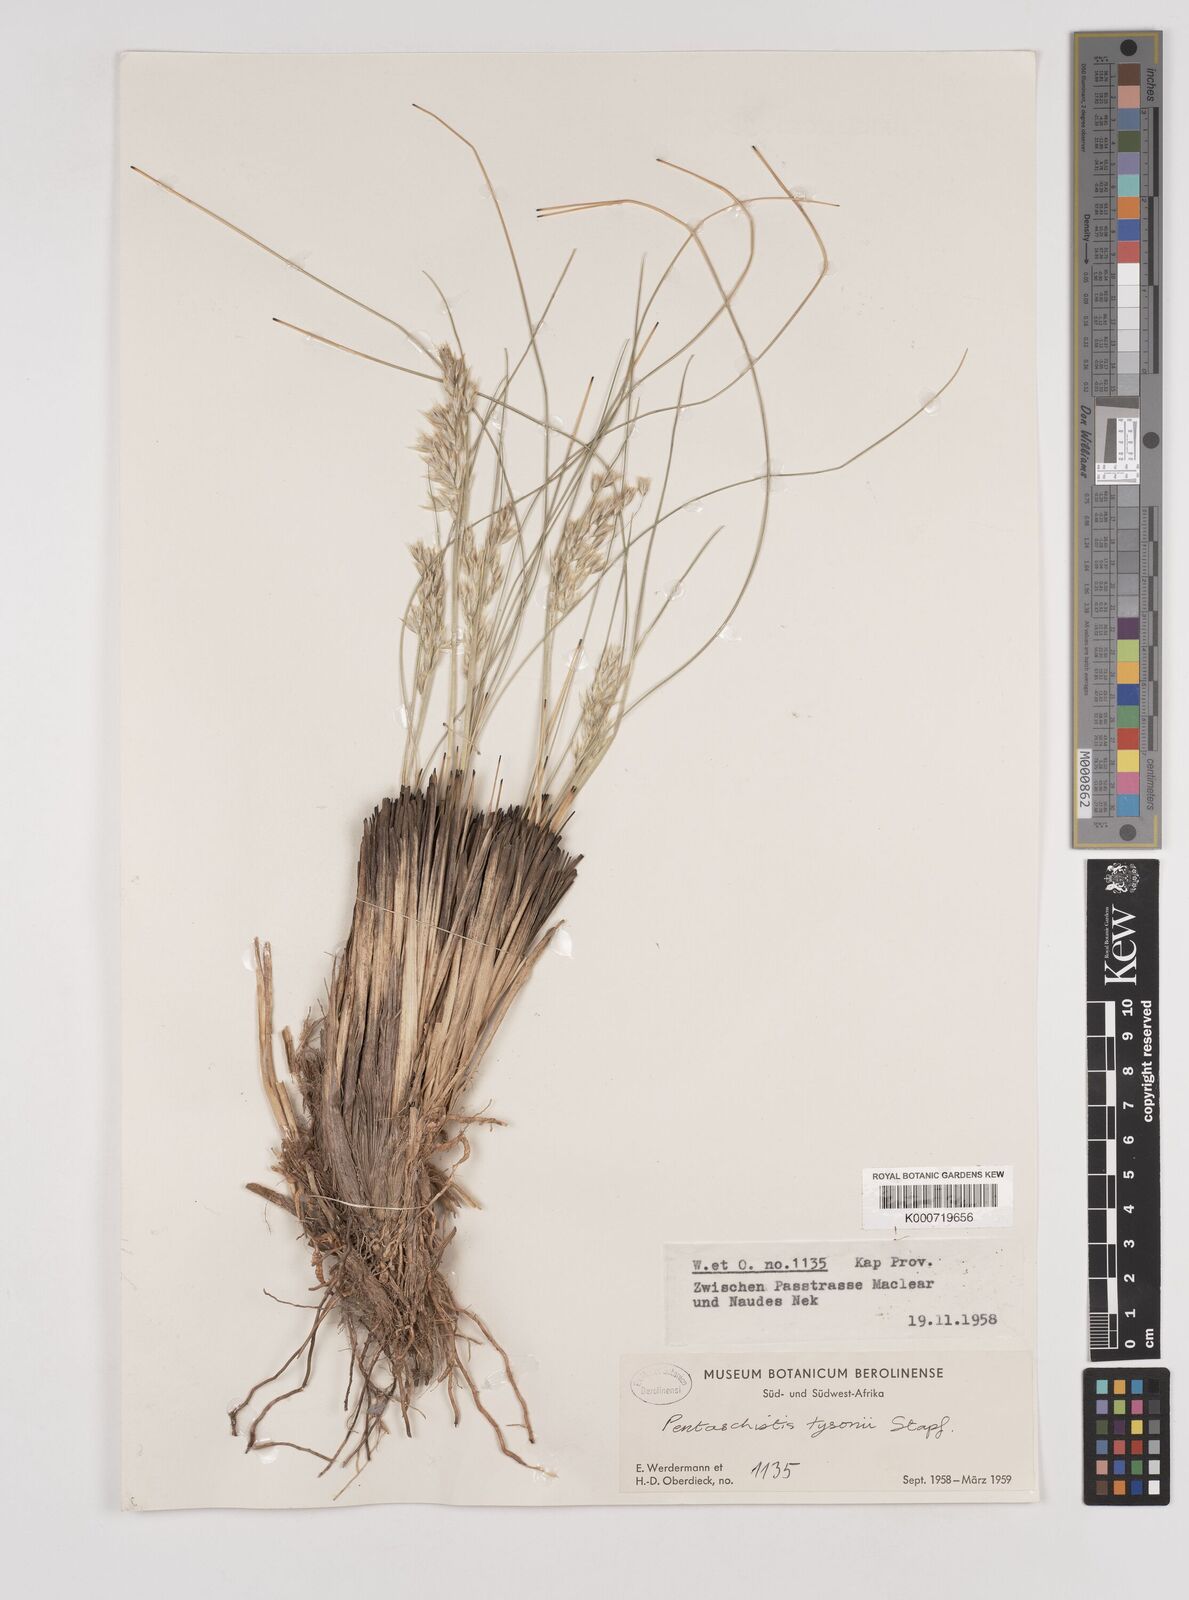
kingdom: Plantae
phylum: Tracheophyta
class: Liliopsida
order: Poales
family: Poaceae
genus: Pentameris
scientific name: Pentameris tysonii
